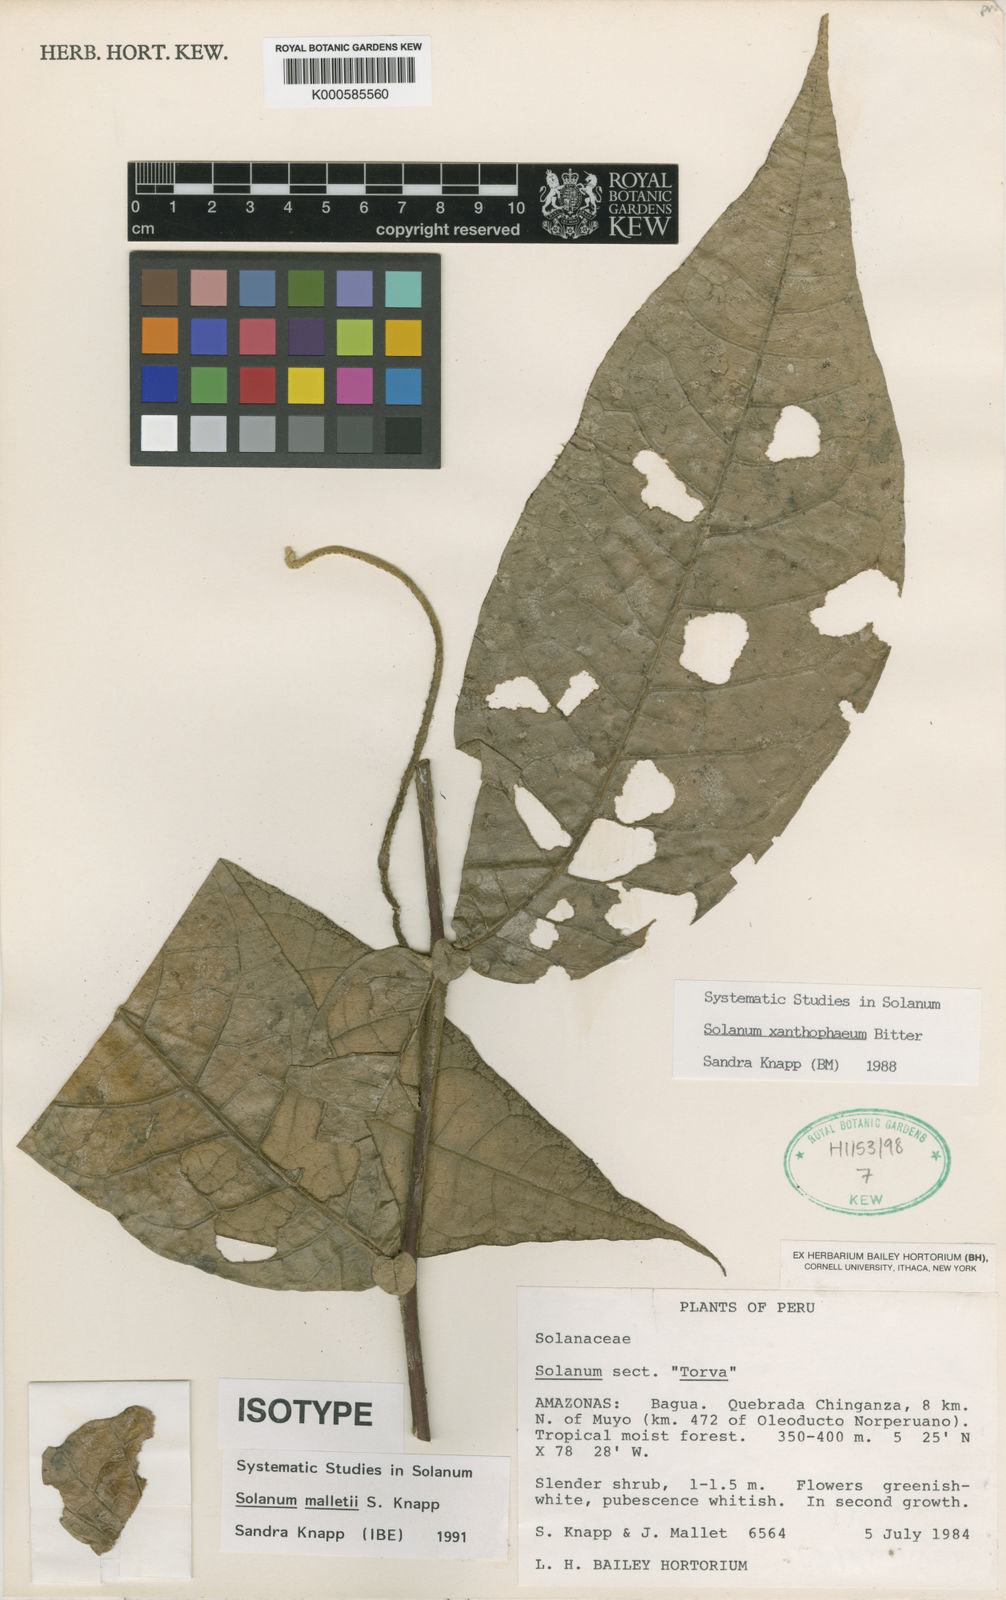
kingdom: Plantae
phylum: Tracheophyta
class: Magnoliopsida
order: Solanales
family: Solanaceae
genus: Solanum
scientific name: Solanum malletii
